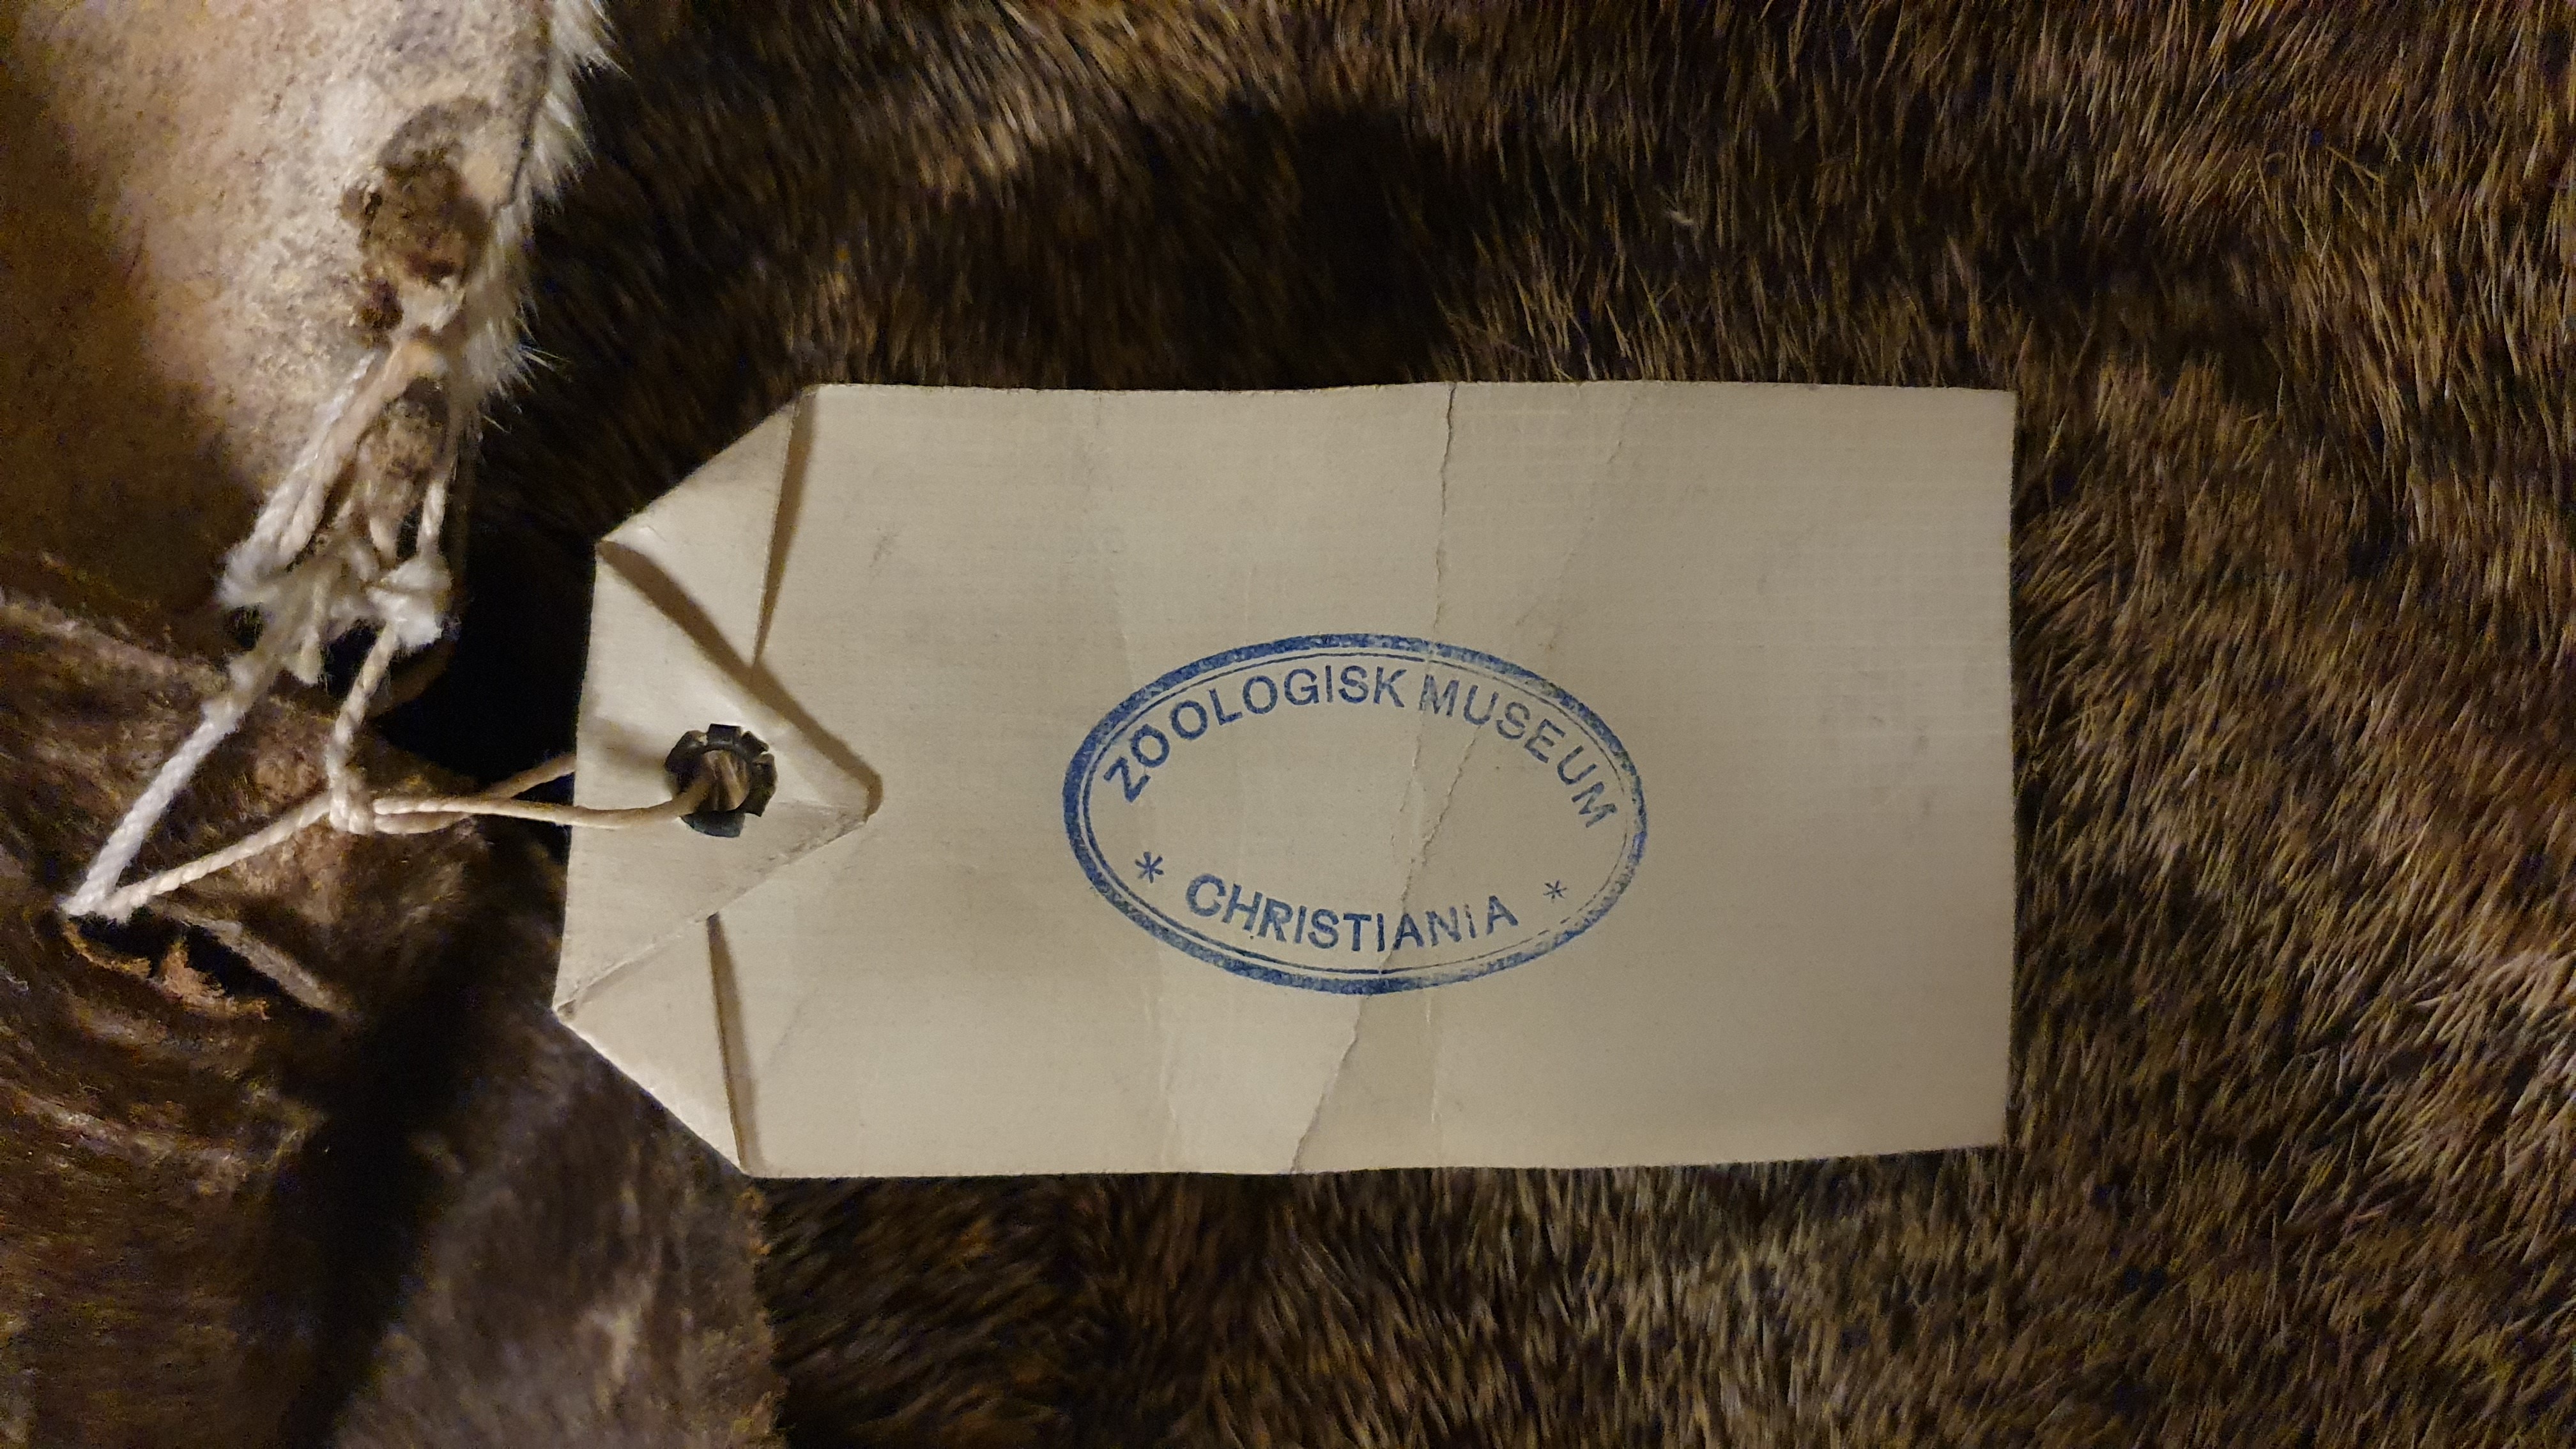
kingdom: Animalia
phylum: Chordata
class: Mammalia
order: Artiodactyla
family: Giraffidae
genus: Okapia
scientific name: Okapia johnstoni
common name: Okapi
